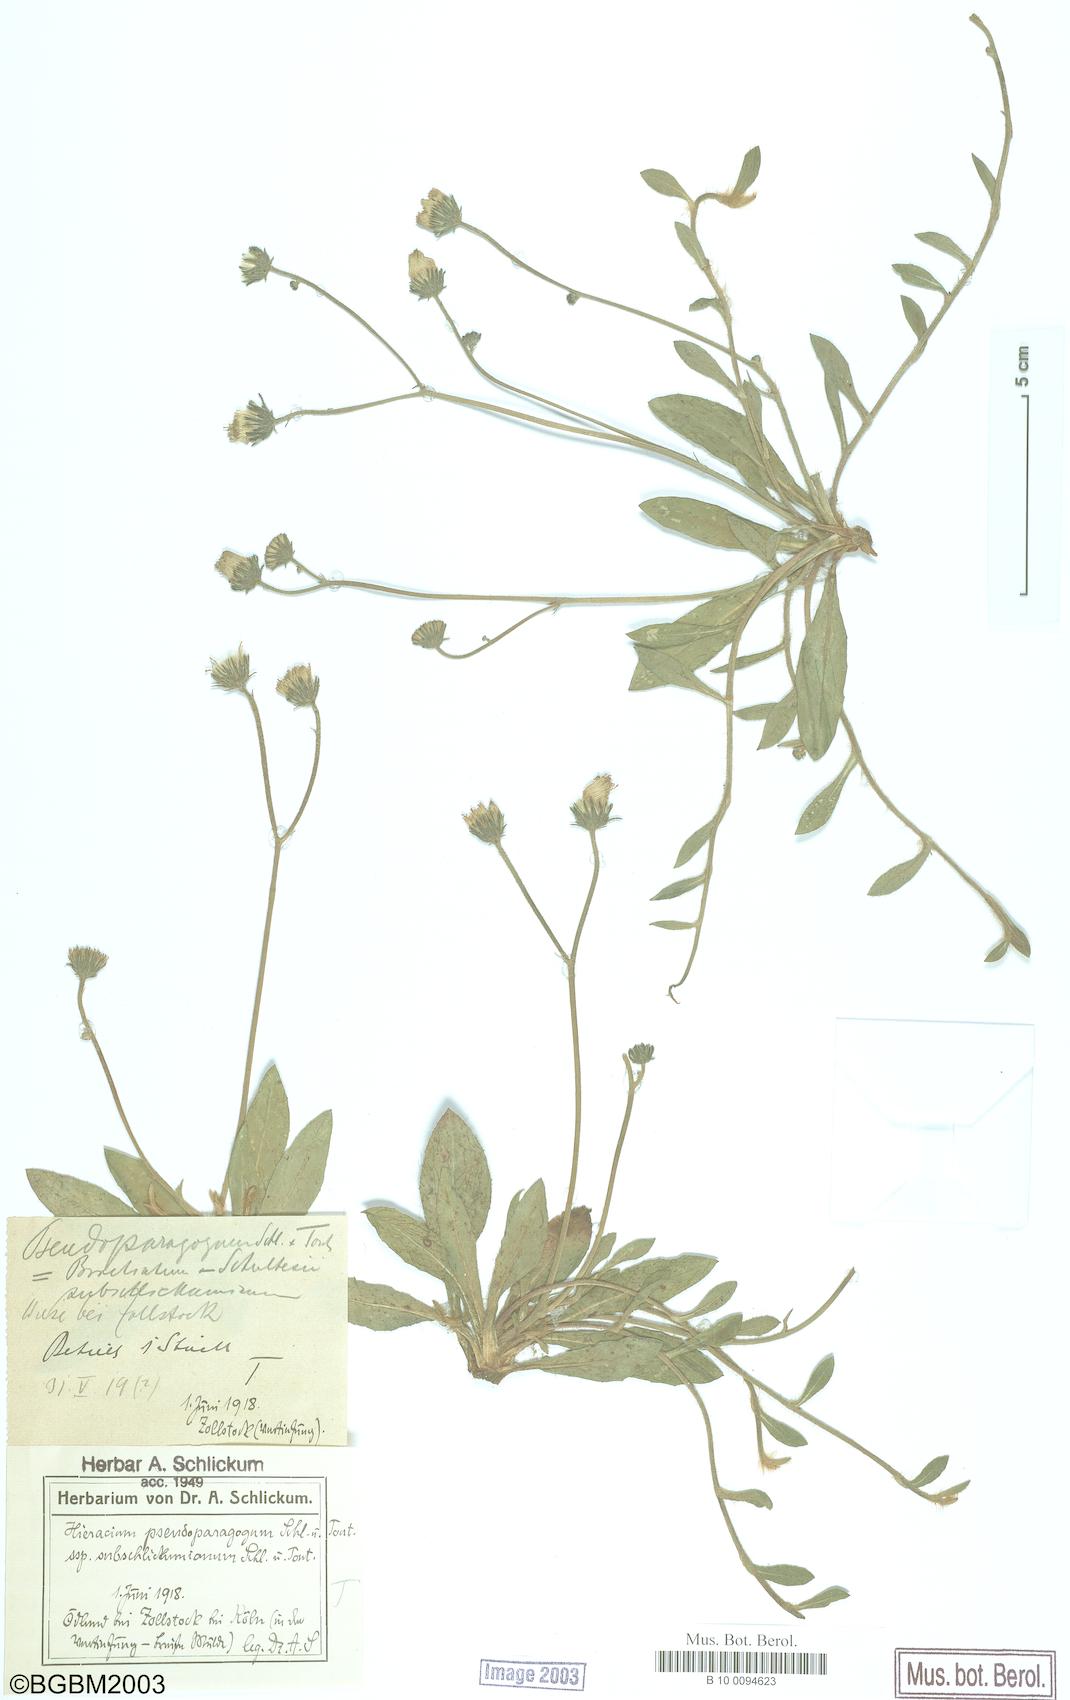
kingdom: Plantae
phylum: Tracheophyta
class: Magnoliopsida
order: Asterales
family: Asteraceae
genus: Pilosella
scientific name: Pilosella pseudoparagoga
